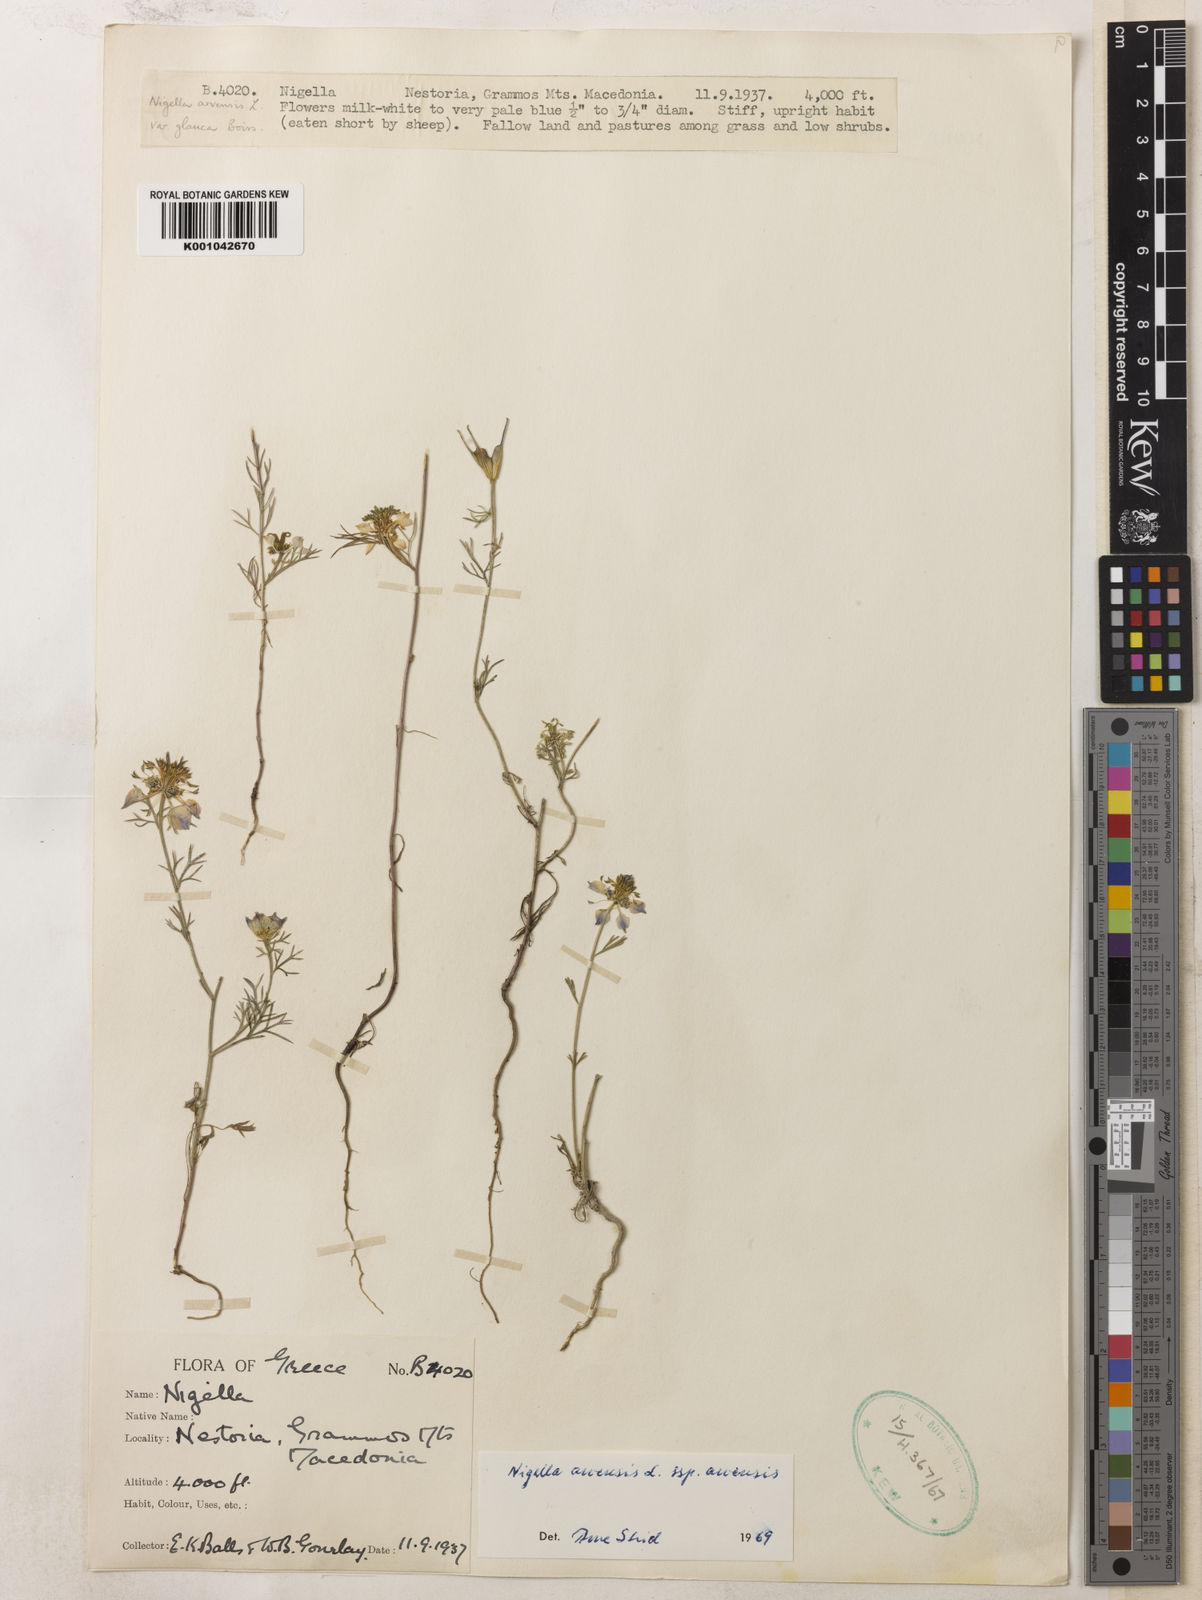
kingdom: Plantae
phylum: Tracheophyta
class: Magnoliopsida
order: Ranunculales
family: Ranunculaceae
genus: Nigella
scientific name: Nigella arvensis
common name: Wild fennel-flower
